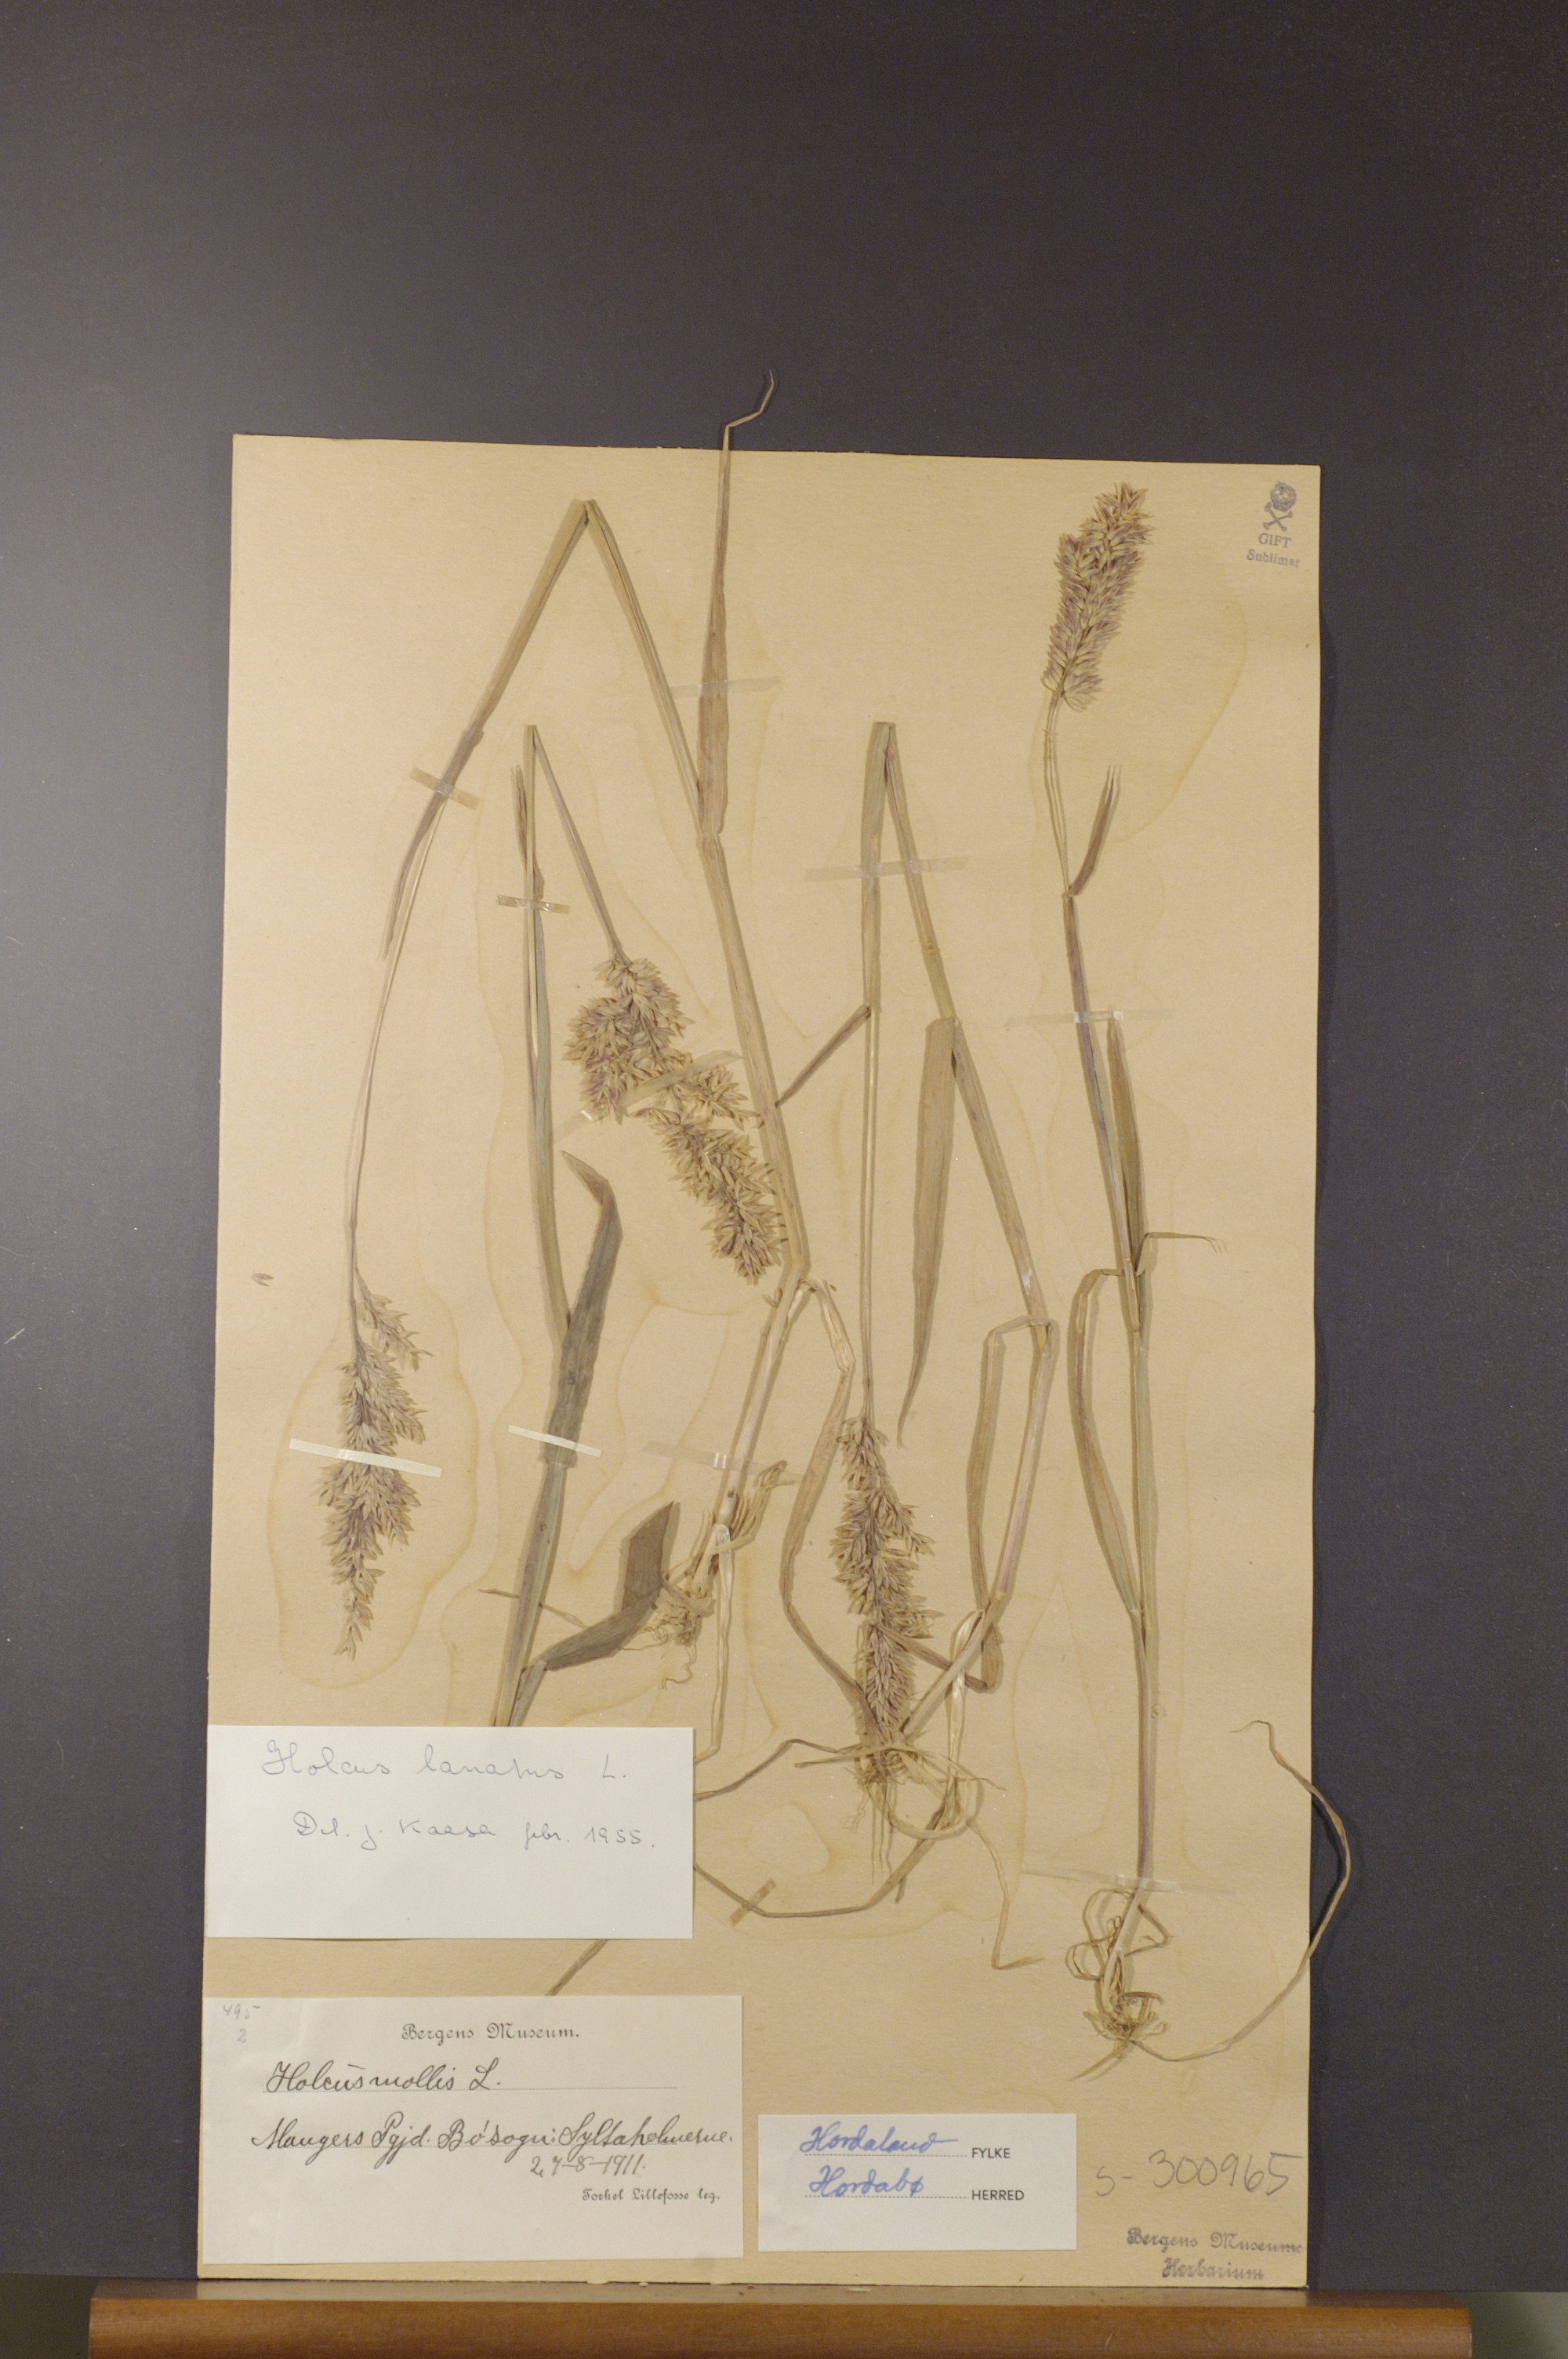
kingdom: Plantae
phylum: Tracheophyta
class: Liliopsida
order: Poales
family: Poaceae
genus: Holcus
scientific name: Holcus lanatus
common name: Yorkshire-fog
